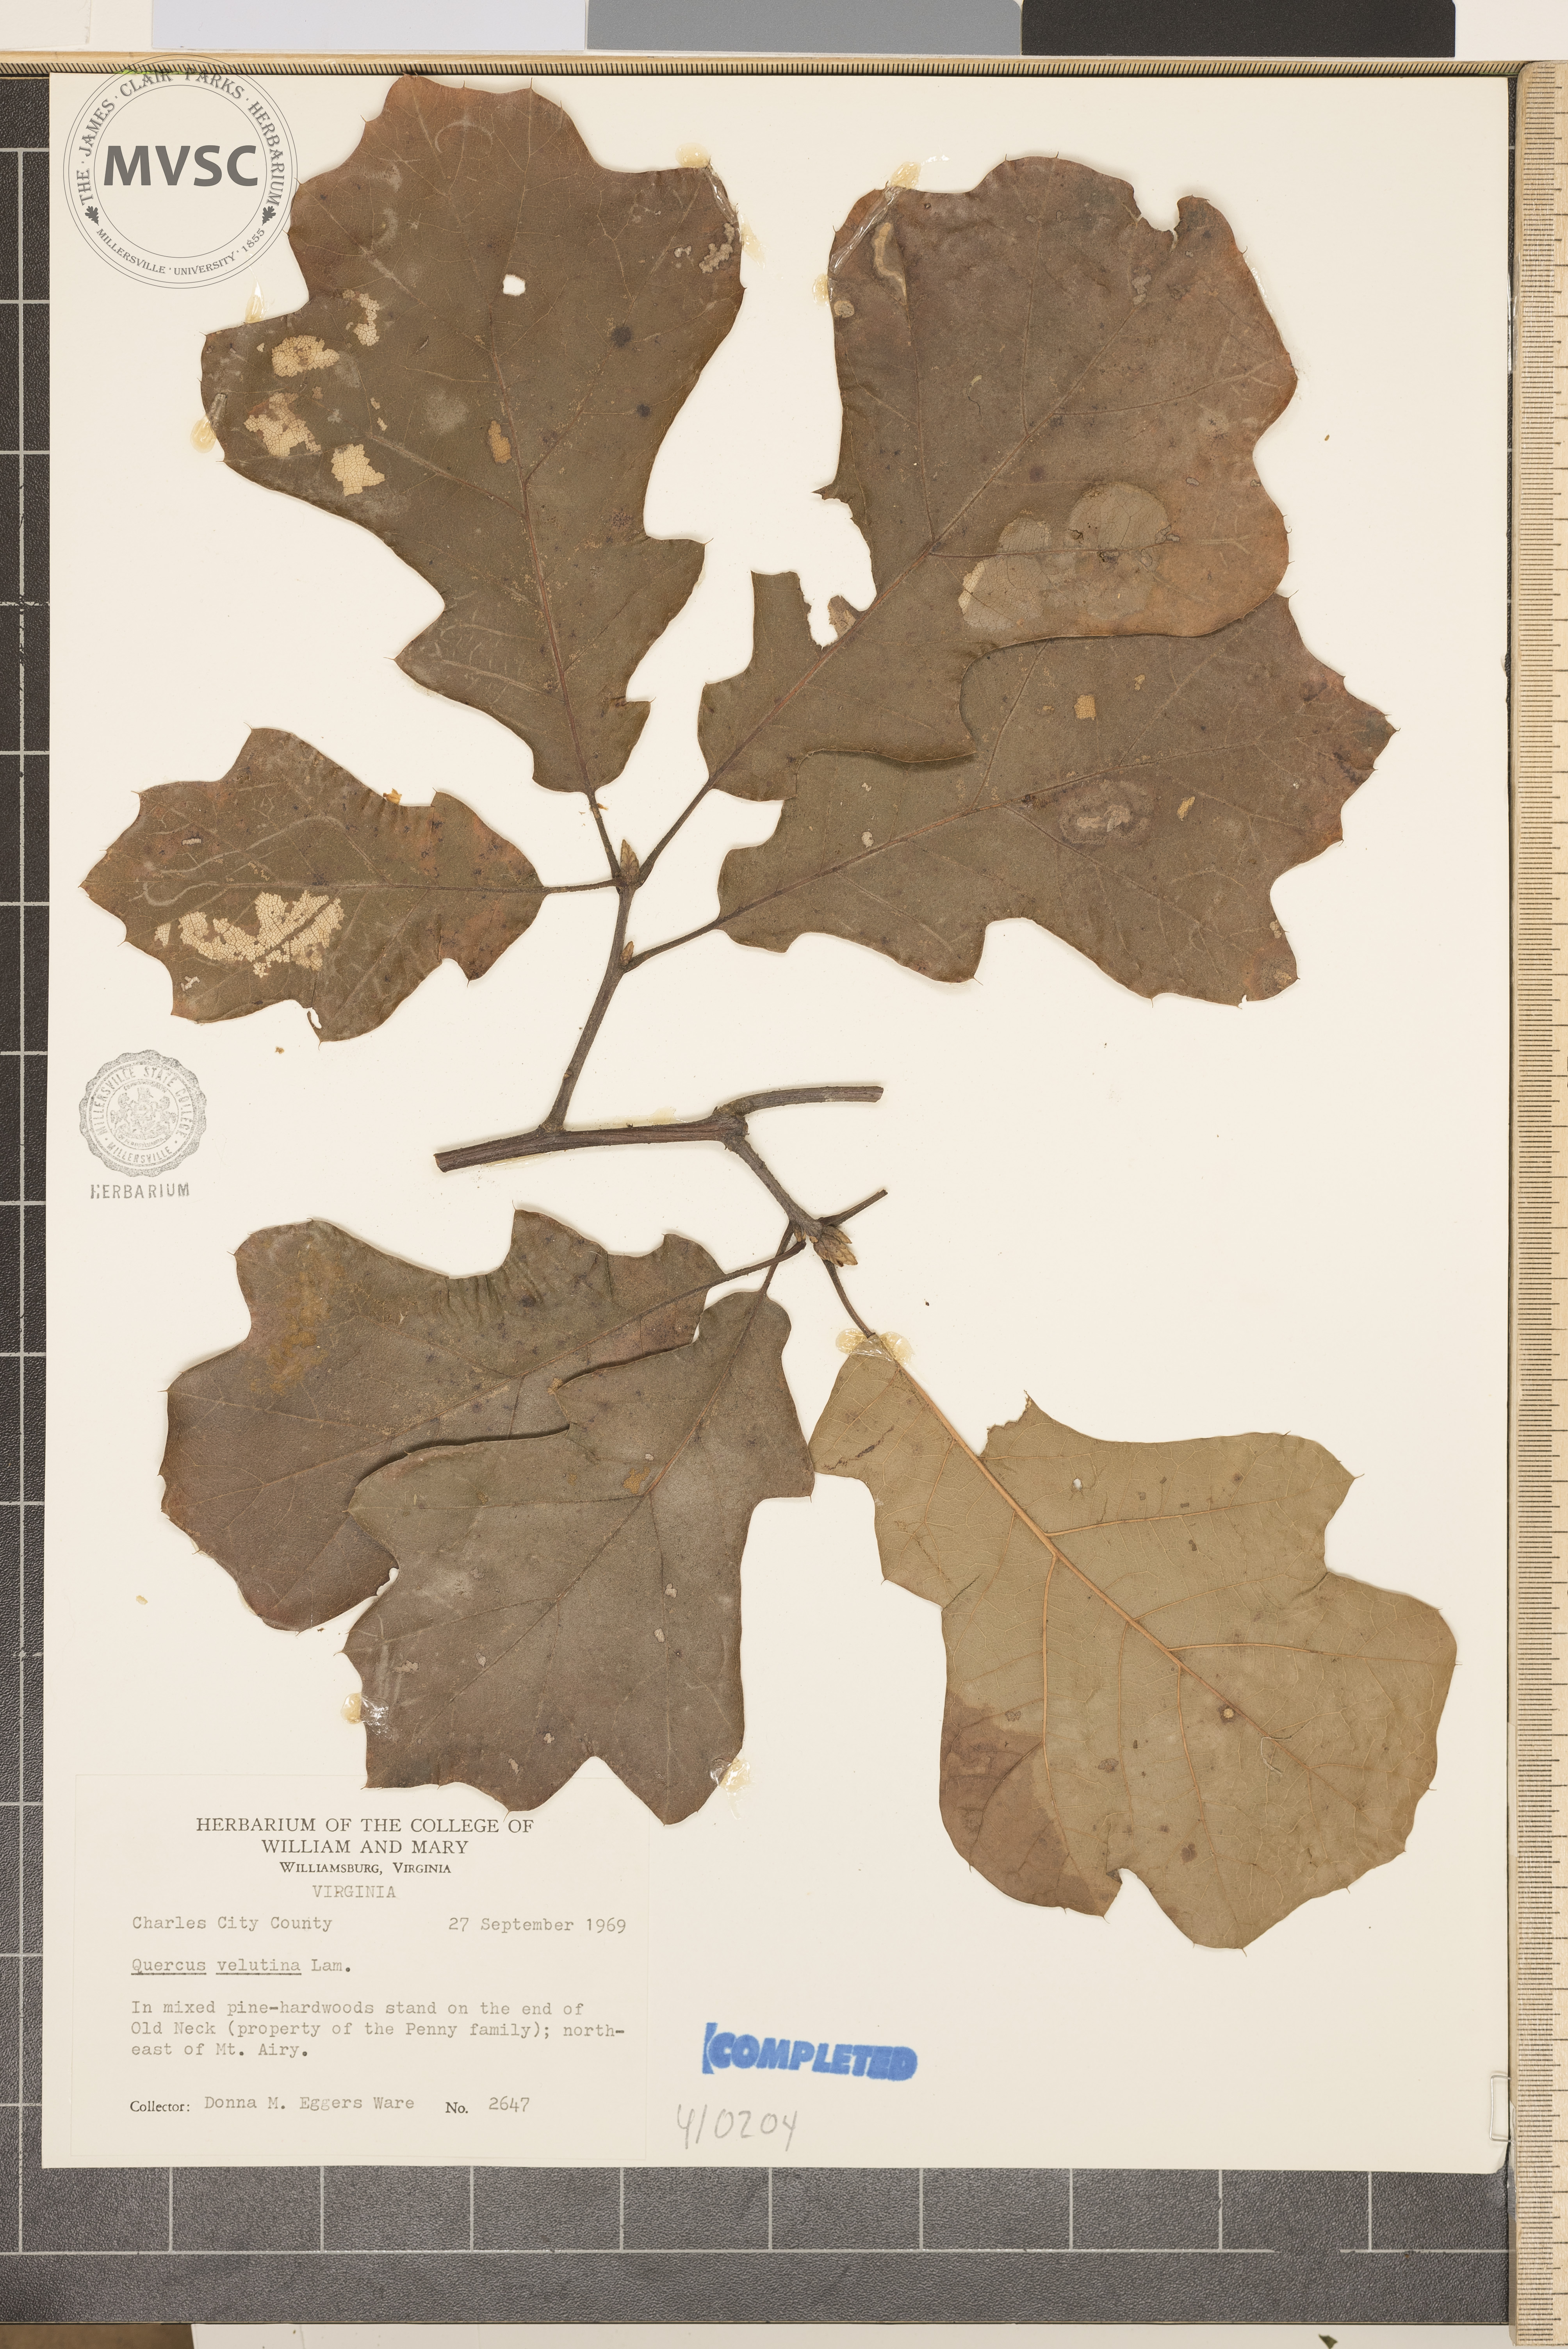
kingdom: Plantae
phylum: Tracheophyta
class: Magnoliopsida
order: Fagales
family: Fagaceae
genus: Quercus
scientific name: Quercus velutina
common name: Black oak
